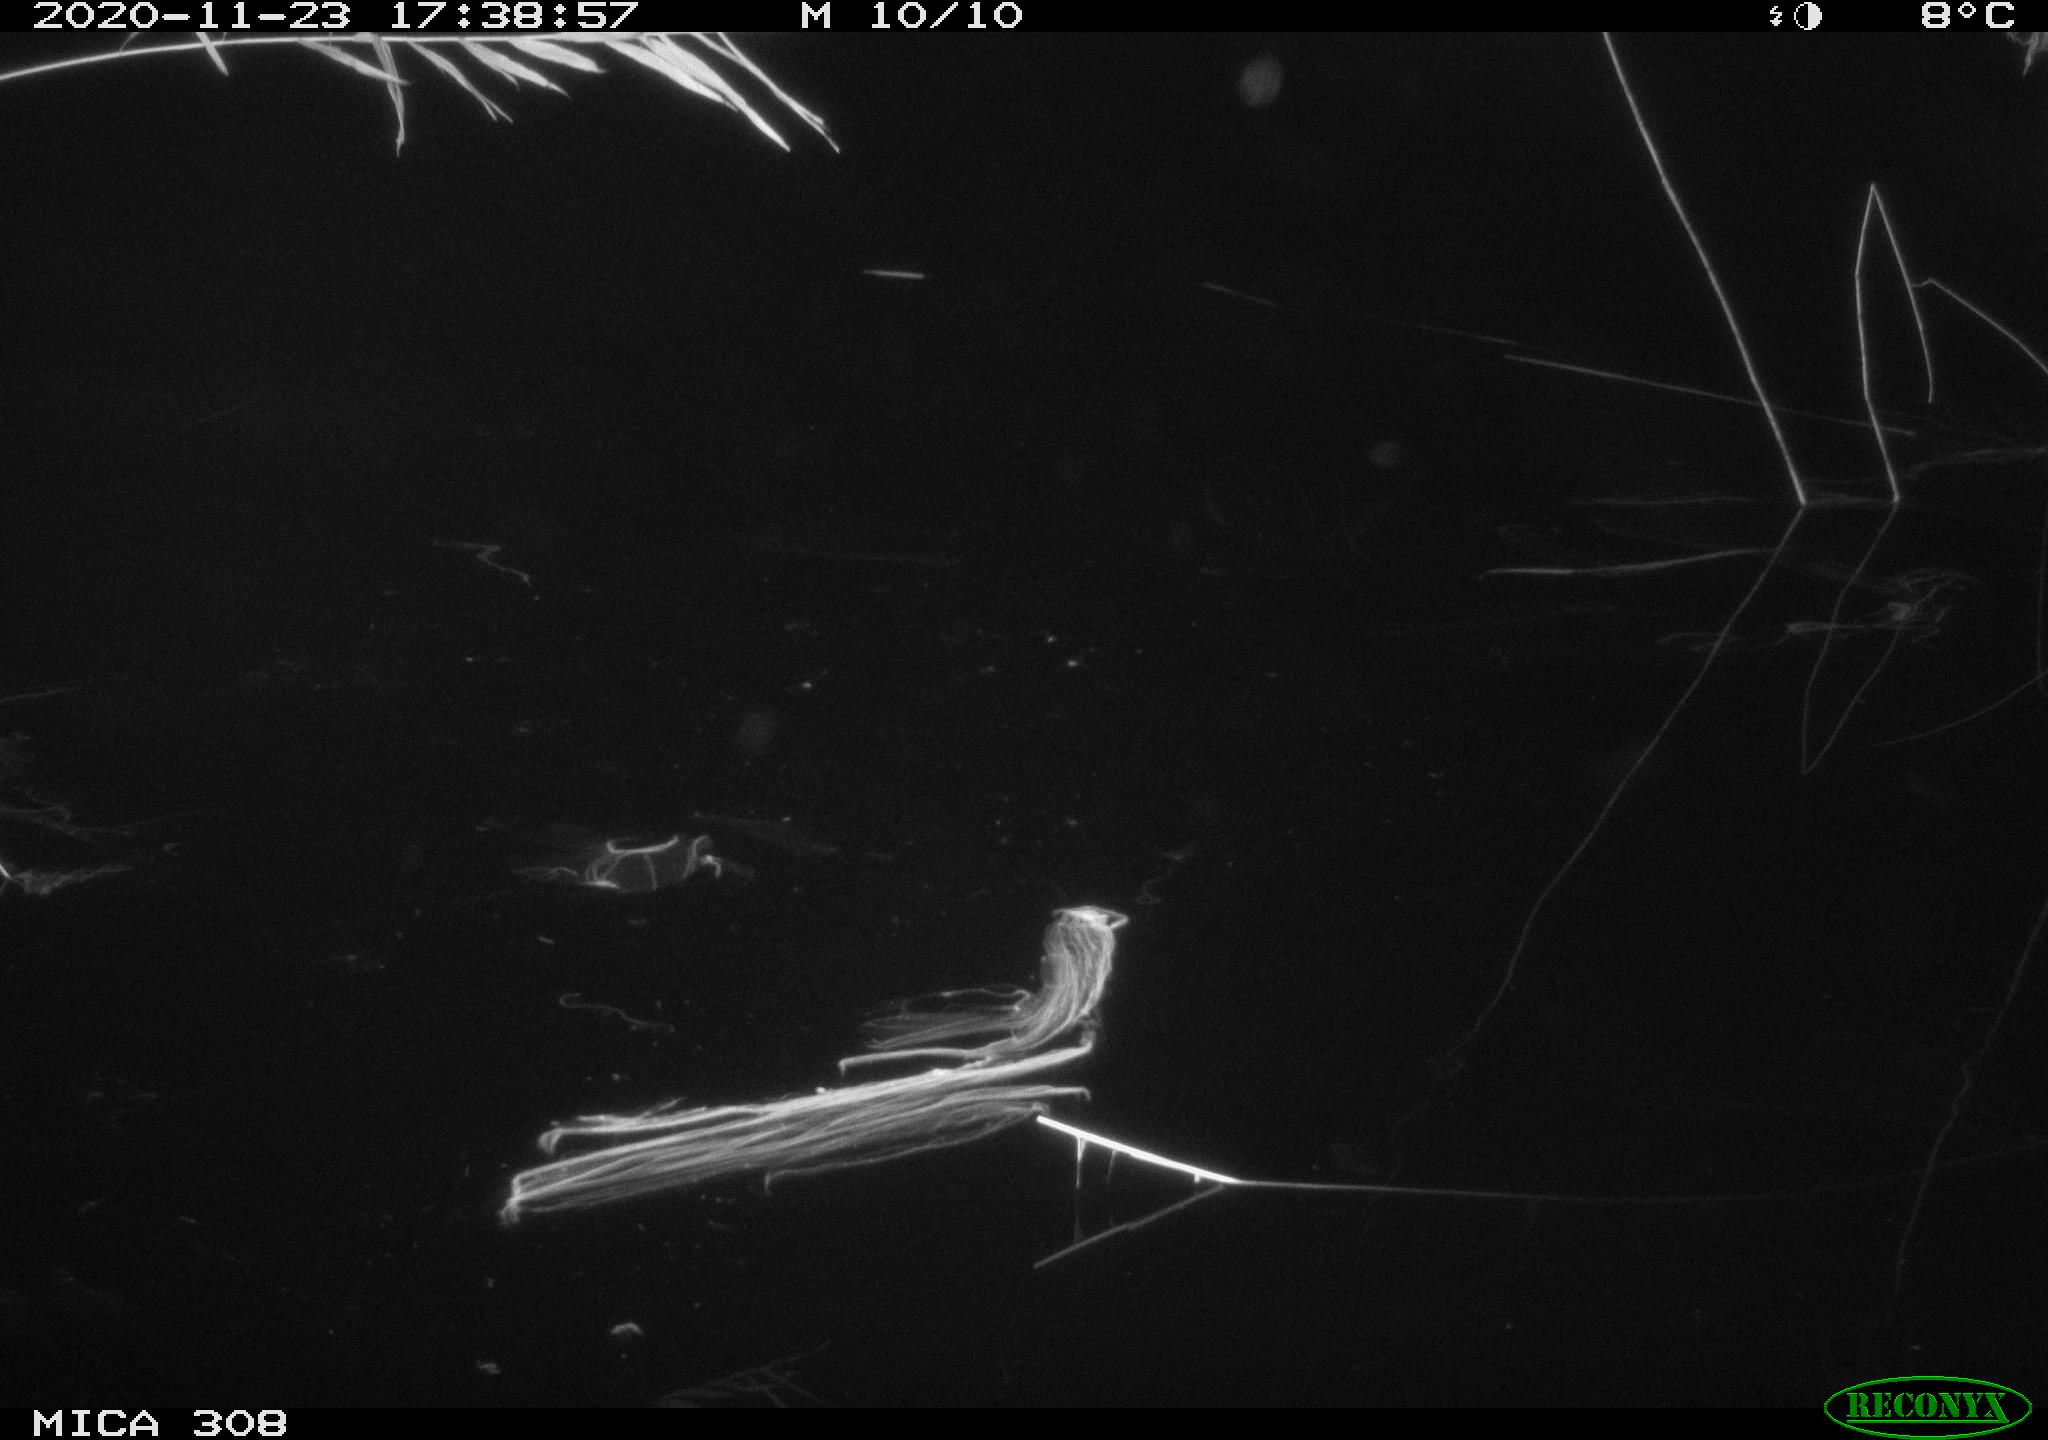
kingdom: Animalia
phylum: Chordata
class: Mammalia
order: Rodentia
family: Muridae
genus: Rattus
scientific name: Rattus norvegicus
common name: Brown rat
